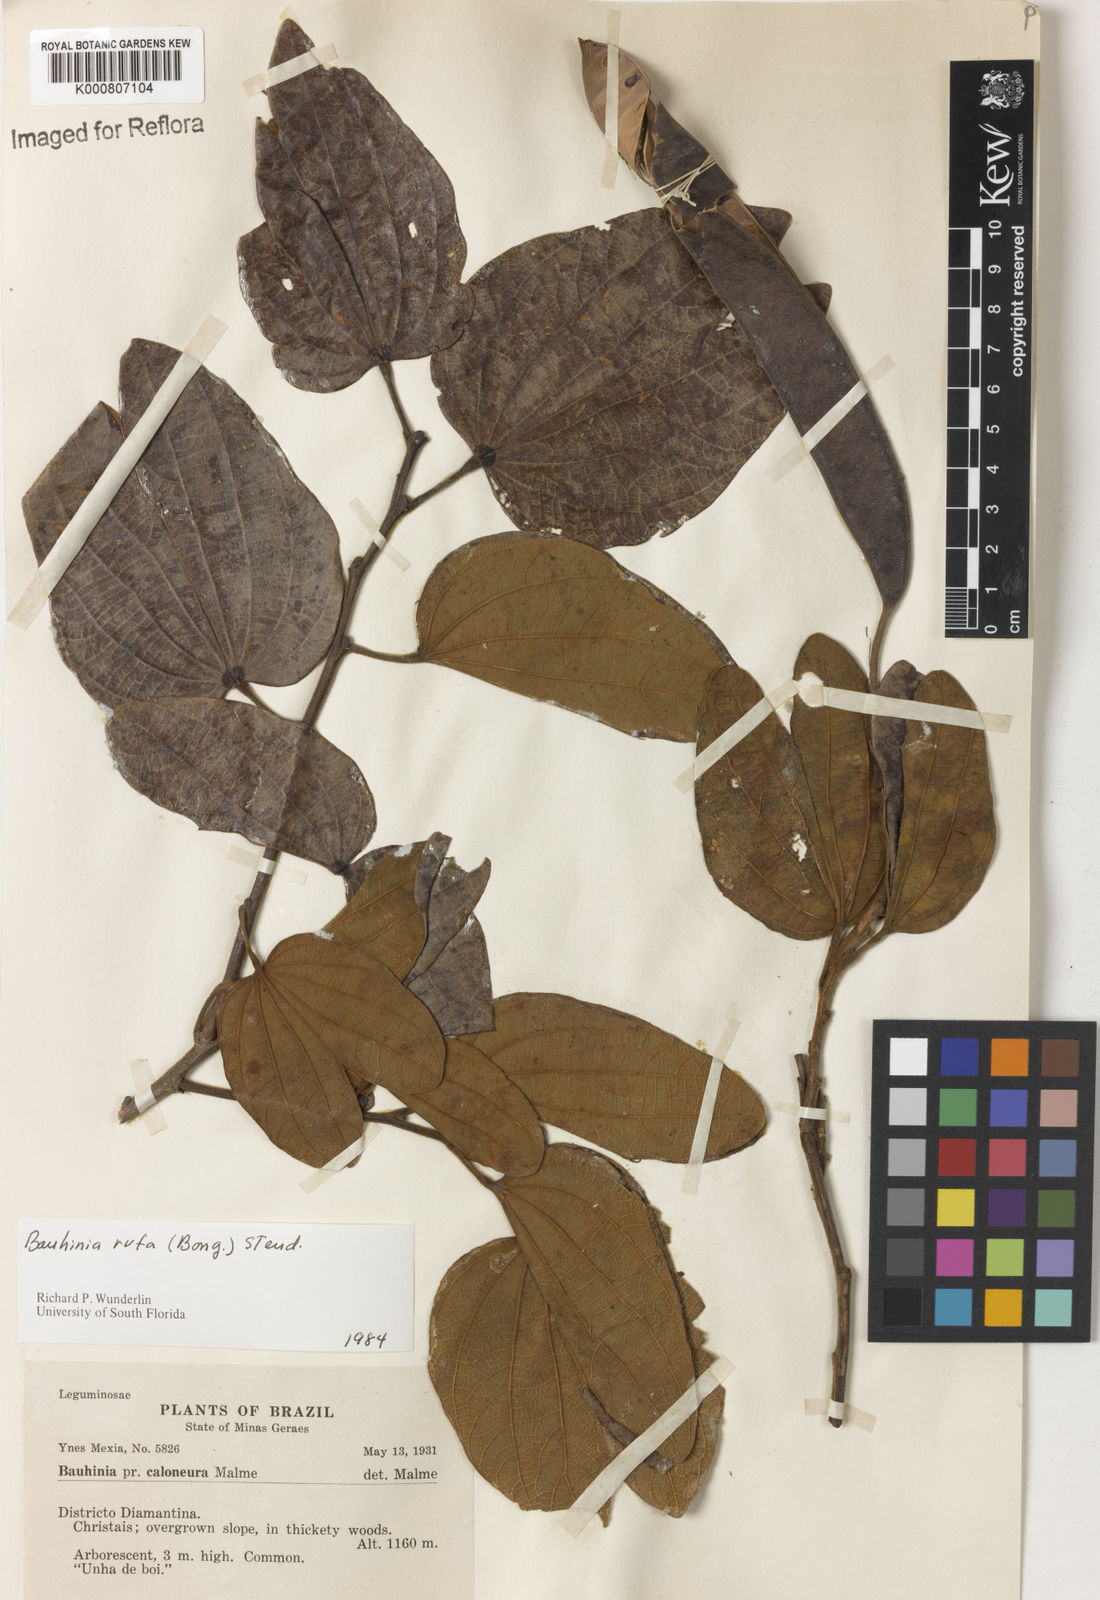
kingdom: Plantae
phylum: Tracheophyta
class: Magnoliopsida
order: Fabales
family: Fabaceae
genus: Bauhinia
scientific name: Bauhinia rufa
